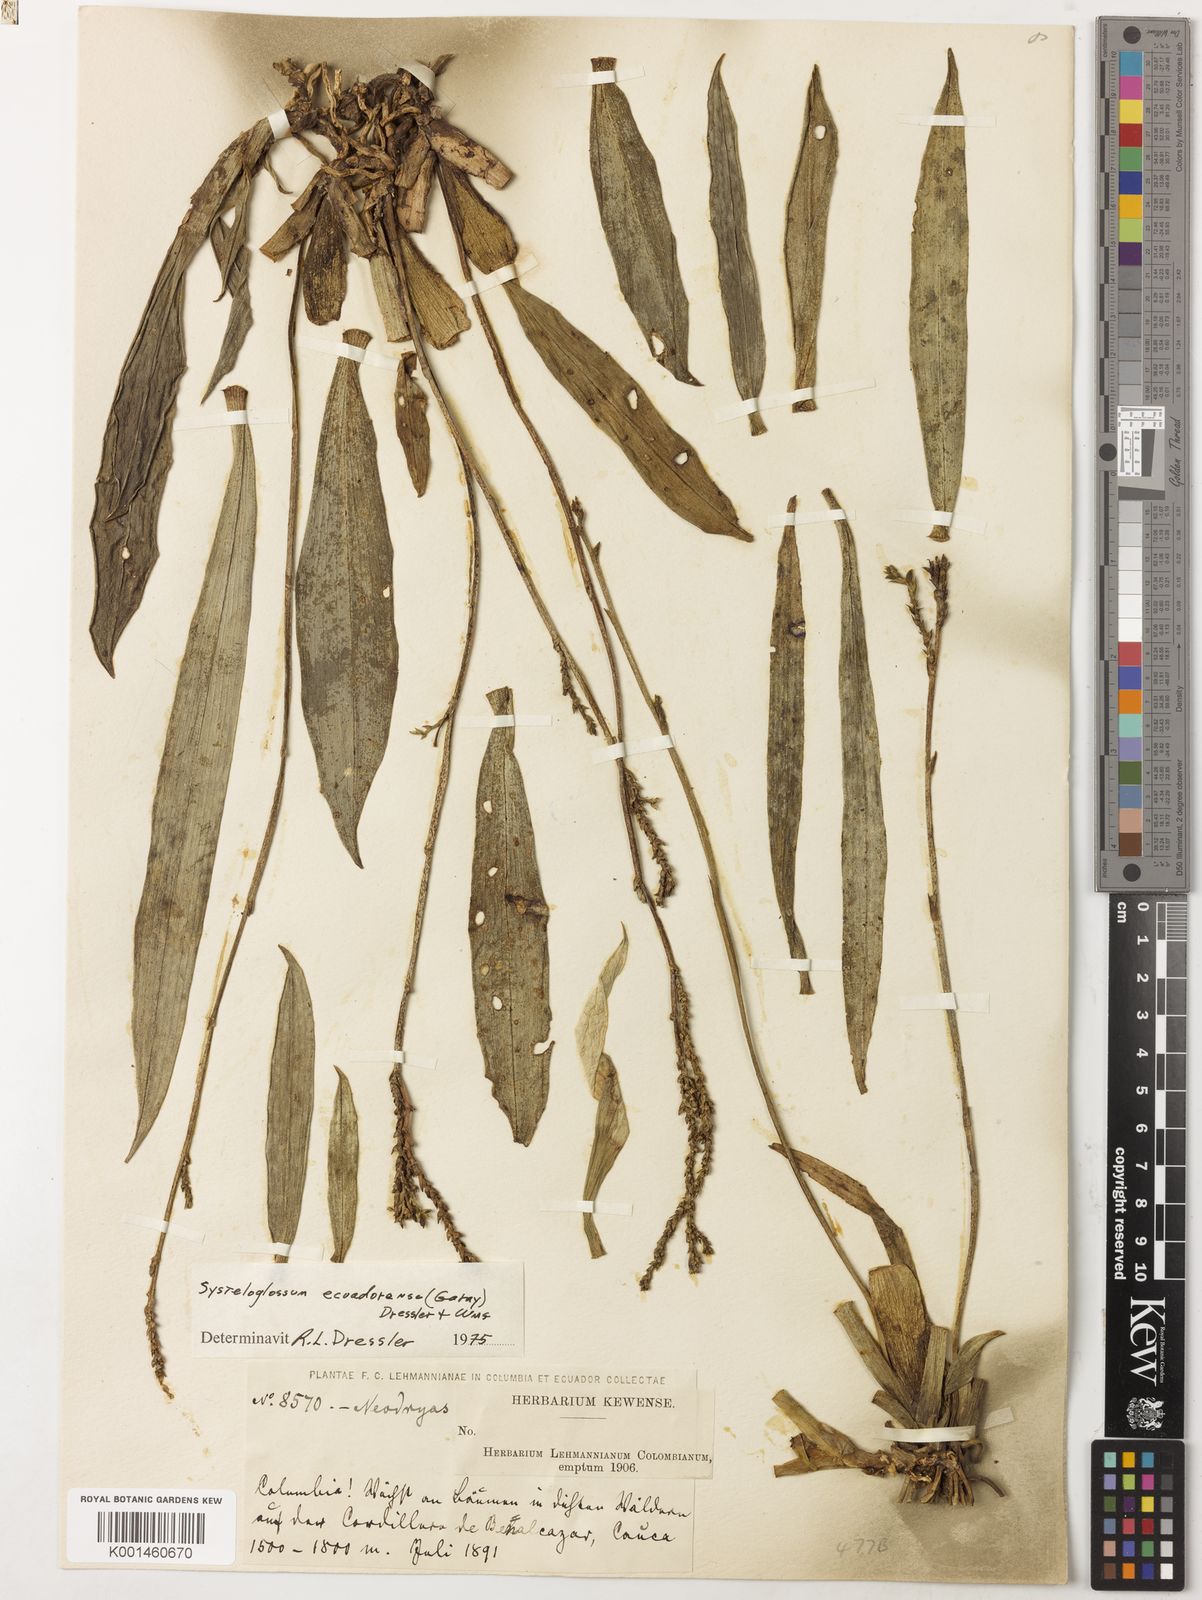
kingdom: Plantae
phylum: Tracheophyta
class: Liliopsida
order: Asparagales
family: Orchidaceae
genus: Systeloglossum
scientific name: Systeloglossum ecuadorense
